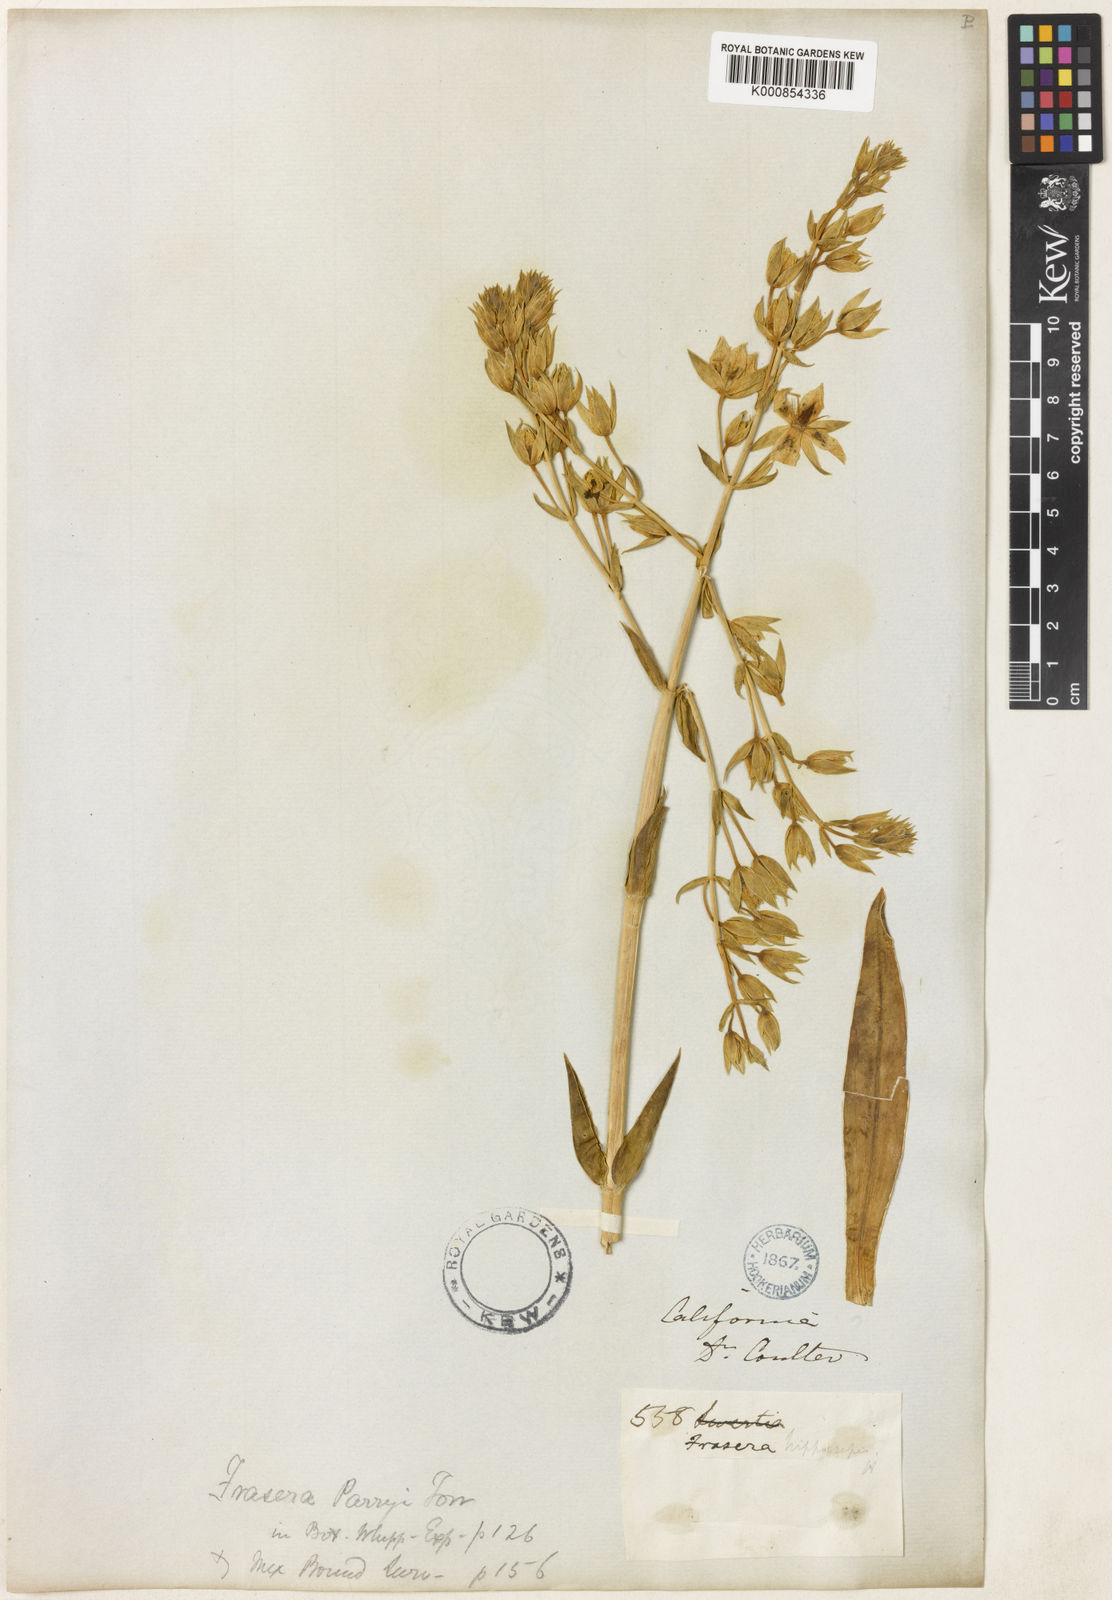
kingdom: Plantae
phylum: Tracheophyta
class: Magnoliopsida
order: Gentianales
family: Gentianaceae
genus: Frasera
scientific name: Frasera parryi
